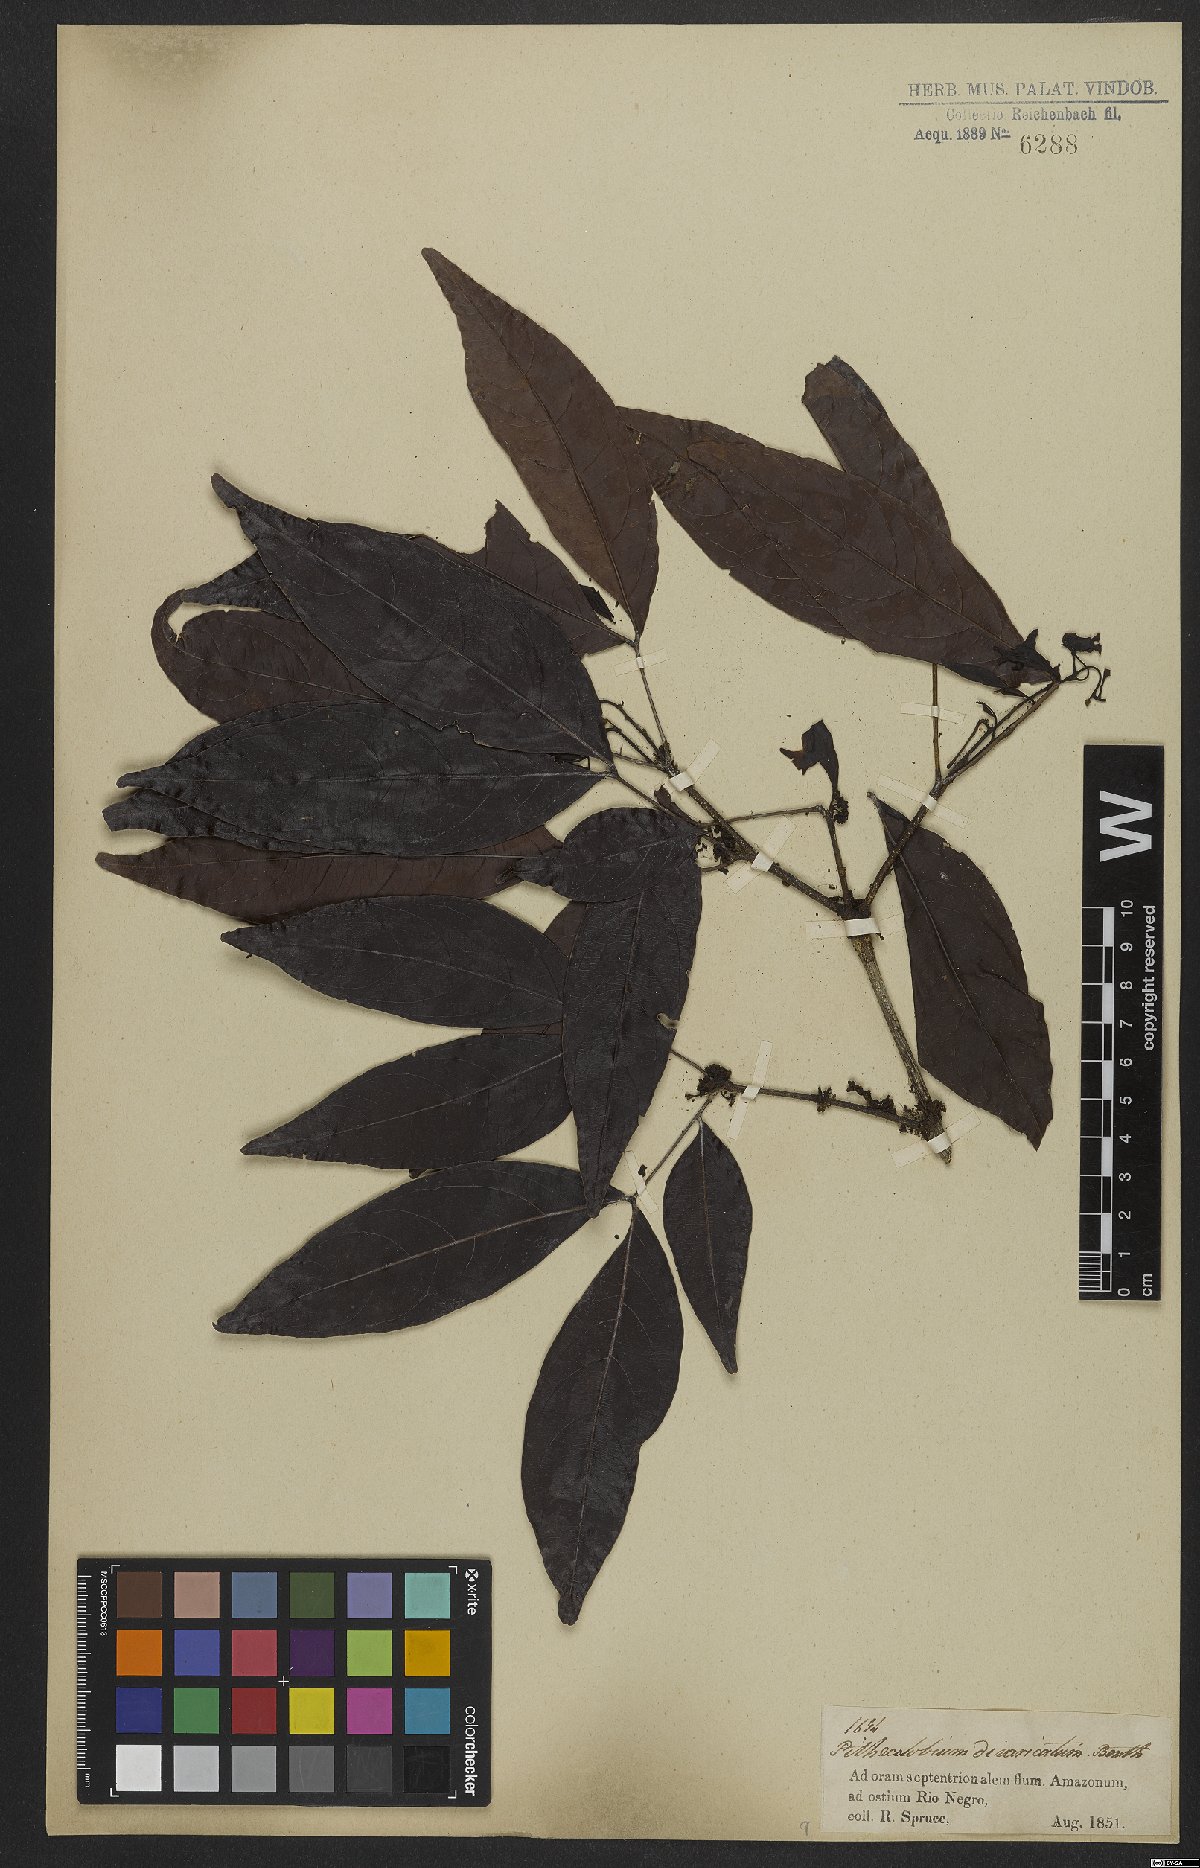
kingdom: Plantae
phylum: Tracheophyta
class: Magnoliopsida
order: Fabales
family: Fabaceae
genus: Zygia
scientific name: Zygia cataractae
